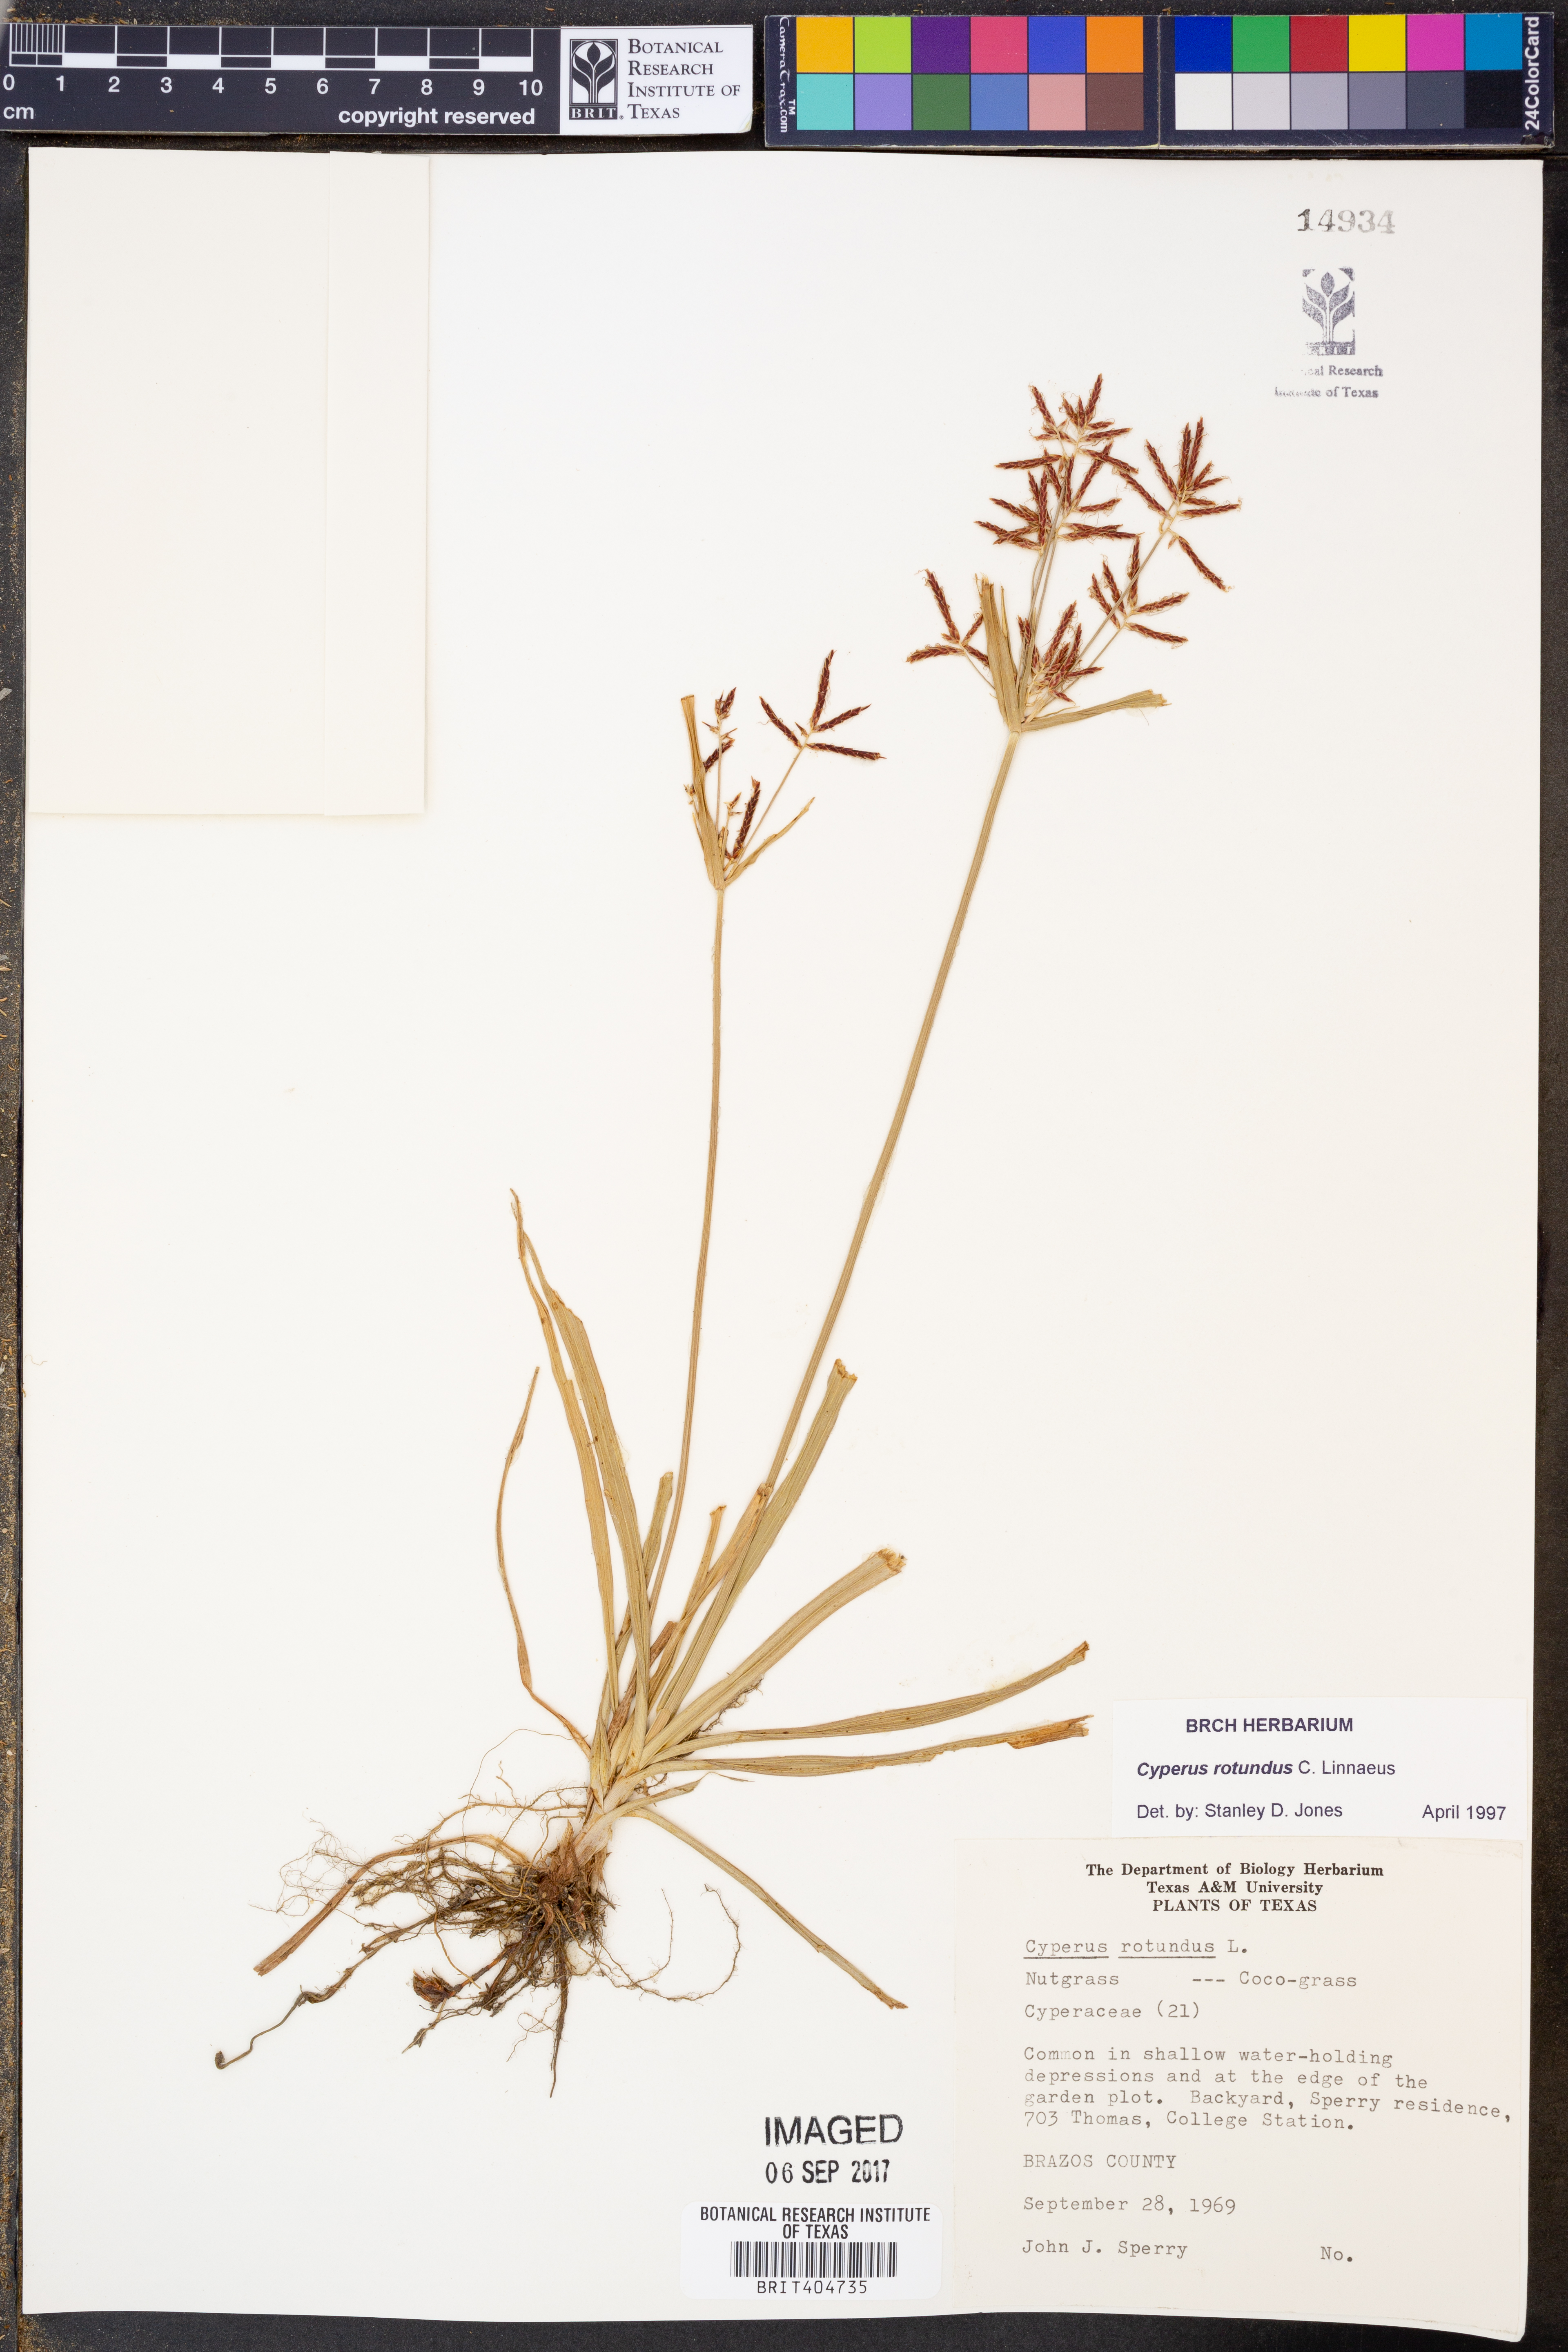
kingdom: Plantae
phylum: Tracheophyta
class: Liliopsida
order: Poales
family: Cyperaceae
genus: Cyperus
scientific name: Cyperus rotundus
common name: Nutgrass
